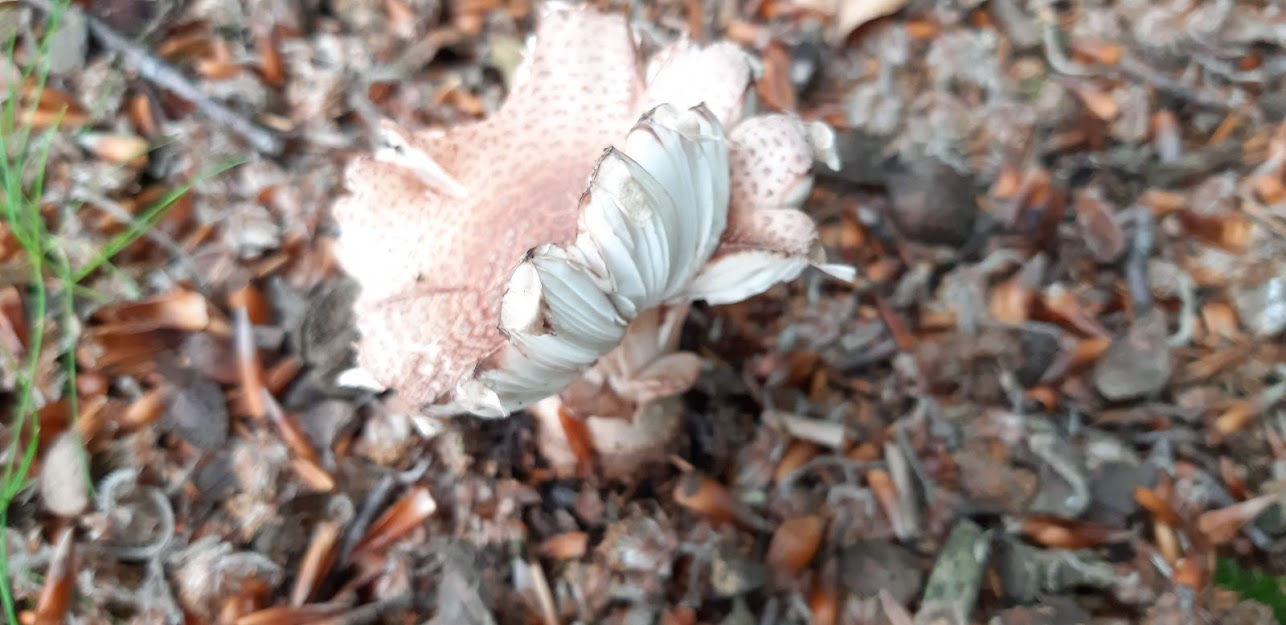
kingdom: Fungi
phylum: Basidiomycota
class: Agaricomycetes
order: Agaricales
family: Amanitaceae
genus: Amanita
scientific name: Amanita rubescens
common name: rødmende fluesvamp
